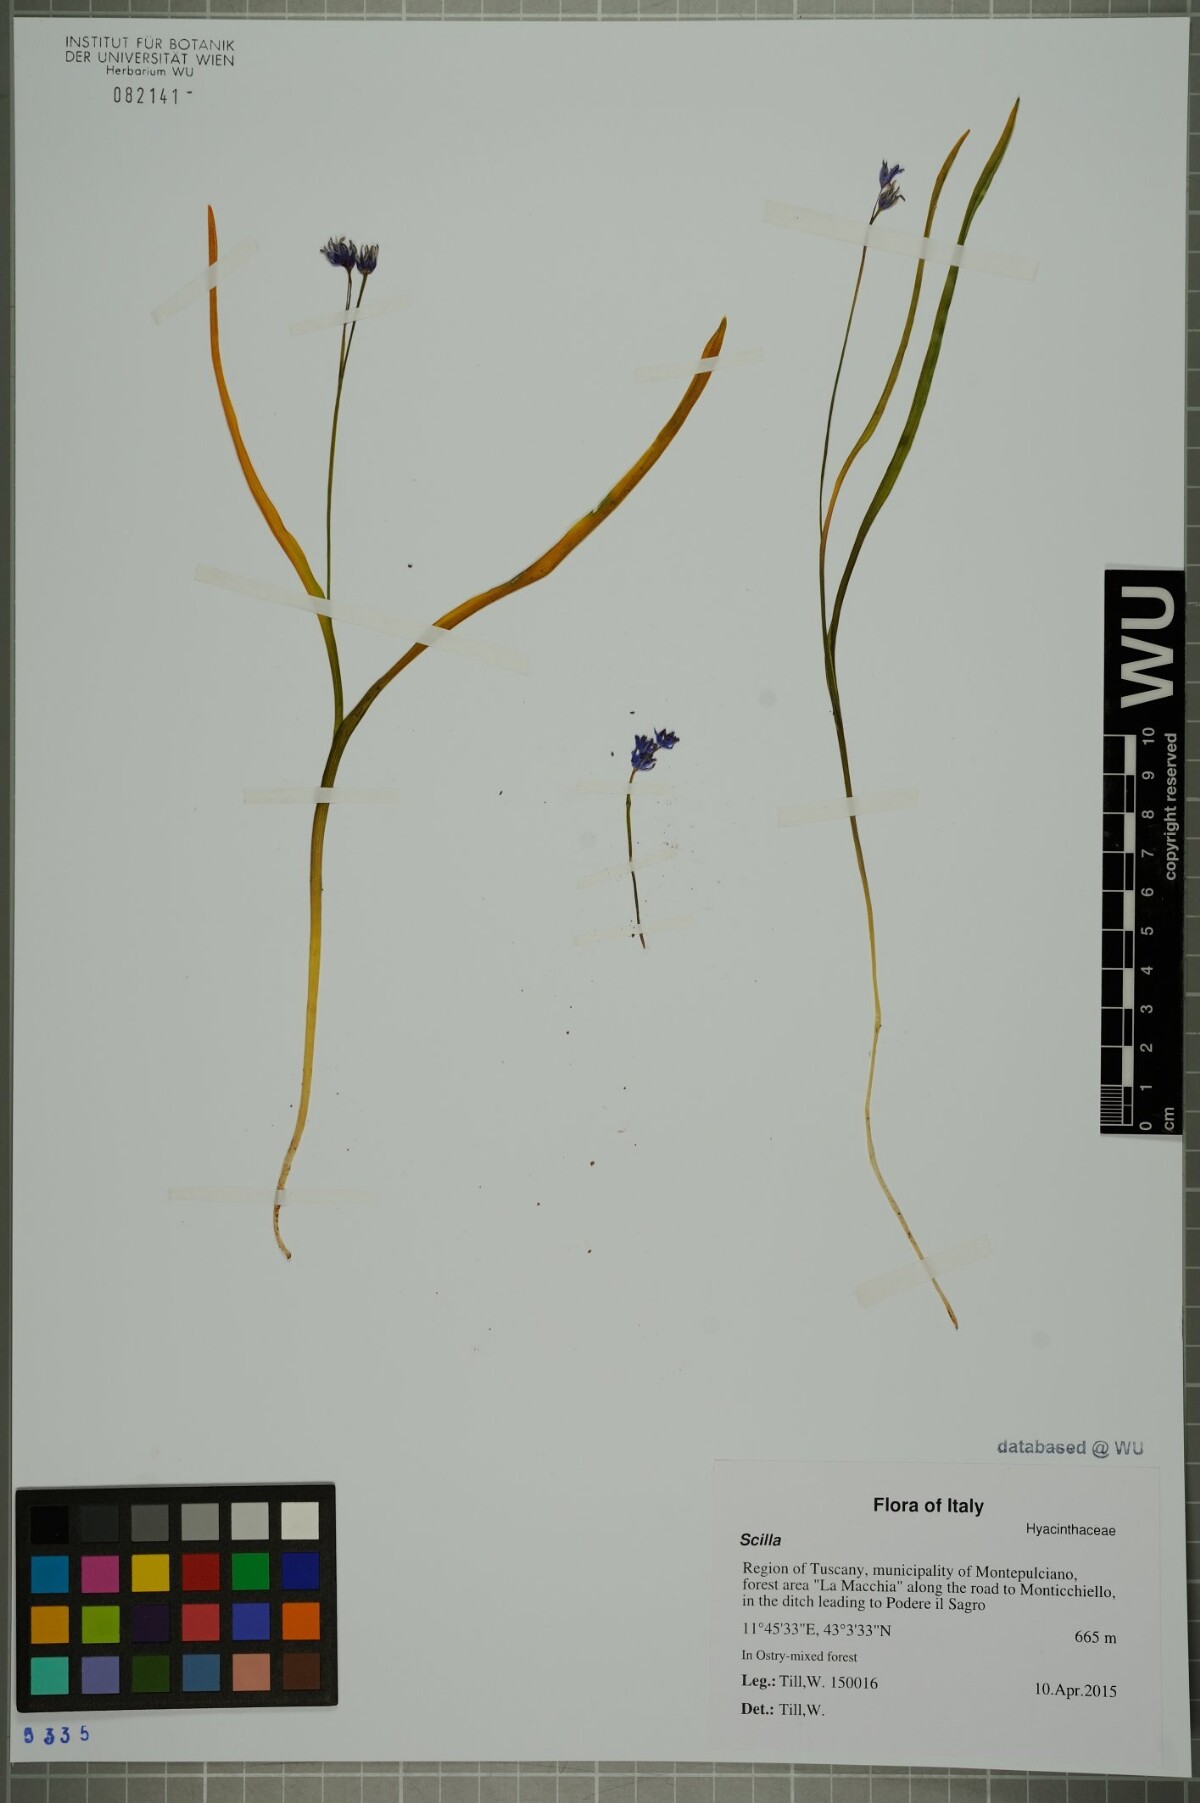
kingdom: Plantae
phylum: Tracheophyta
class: Liliopsida
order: Asparagales
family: Asparagaceae
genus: Scilla
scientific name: Scilla
